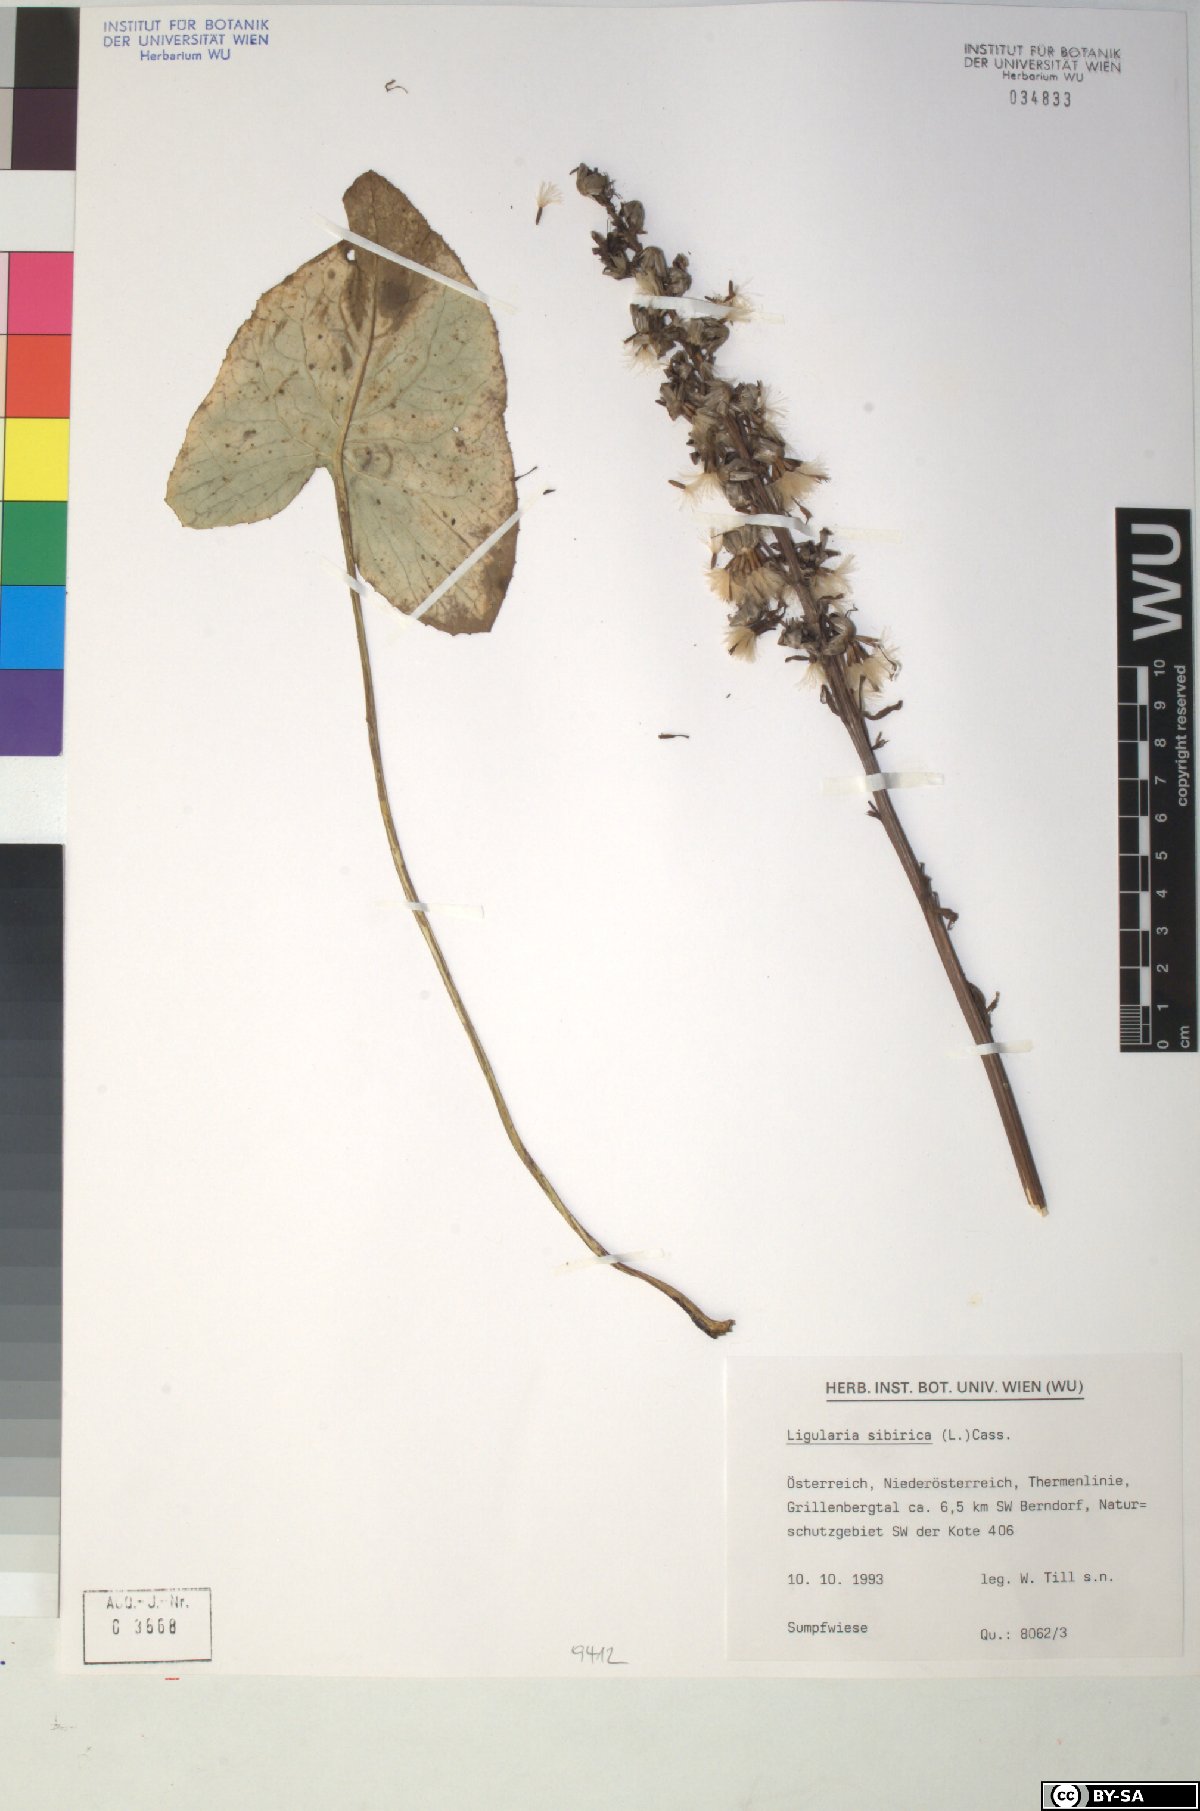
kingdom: Plantae
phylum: Tracheophyta
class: Magnoliopsida
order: Asterales
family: Asteraceae
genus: Ligularia
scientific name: Ligularia sibirica
